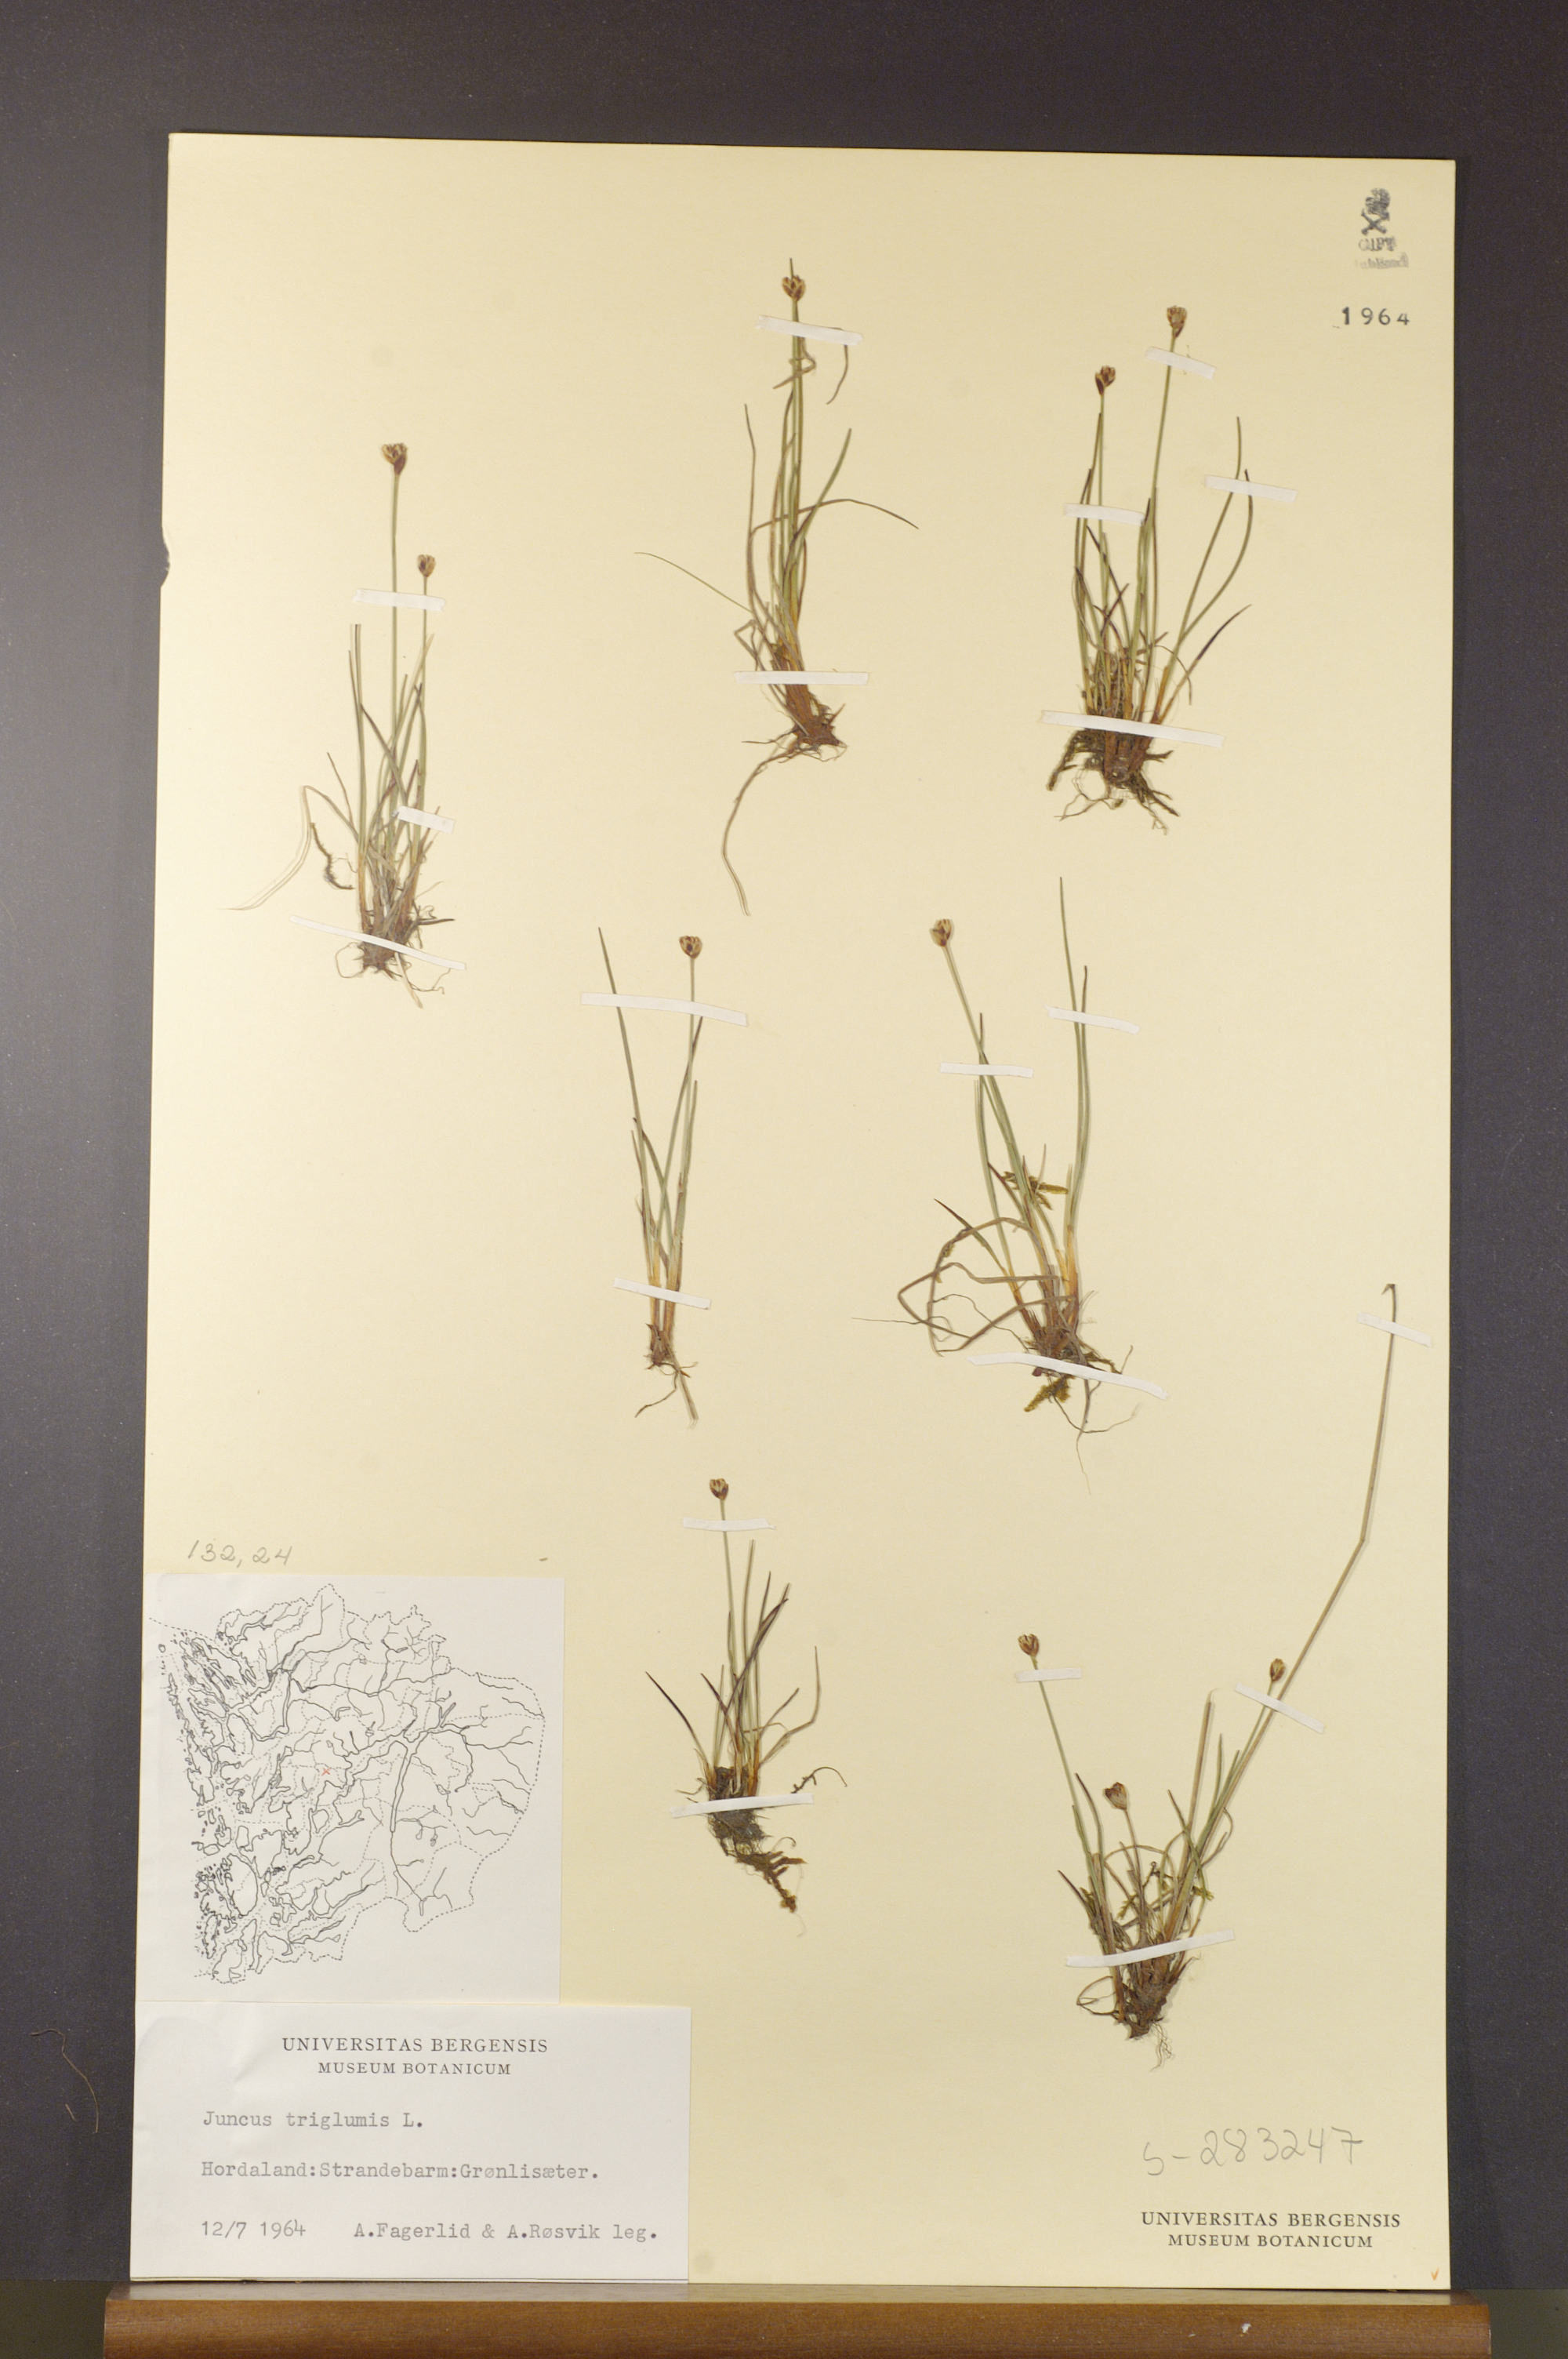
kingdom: Plantae
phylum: Tracheophyta
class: Liliopsida
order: Poales
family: Juncaceae
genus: Juncus
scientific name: Juncus triglumis
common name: Three-flowered rush
